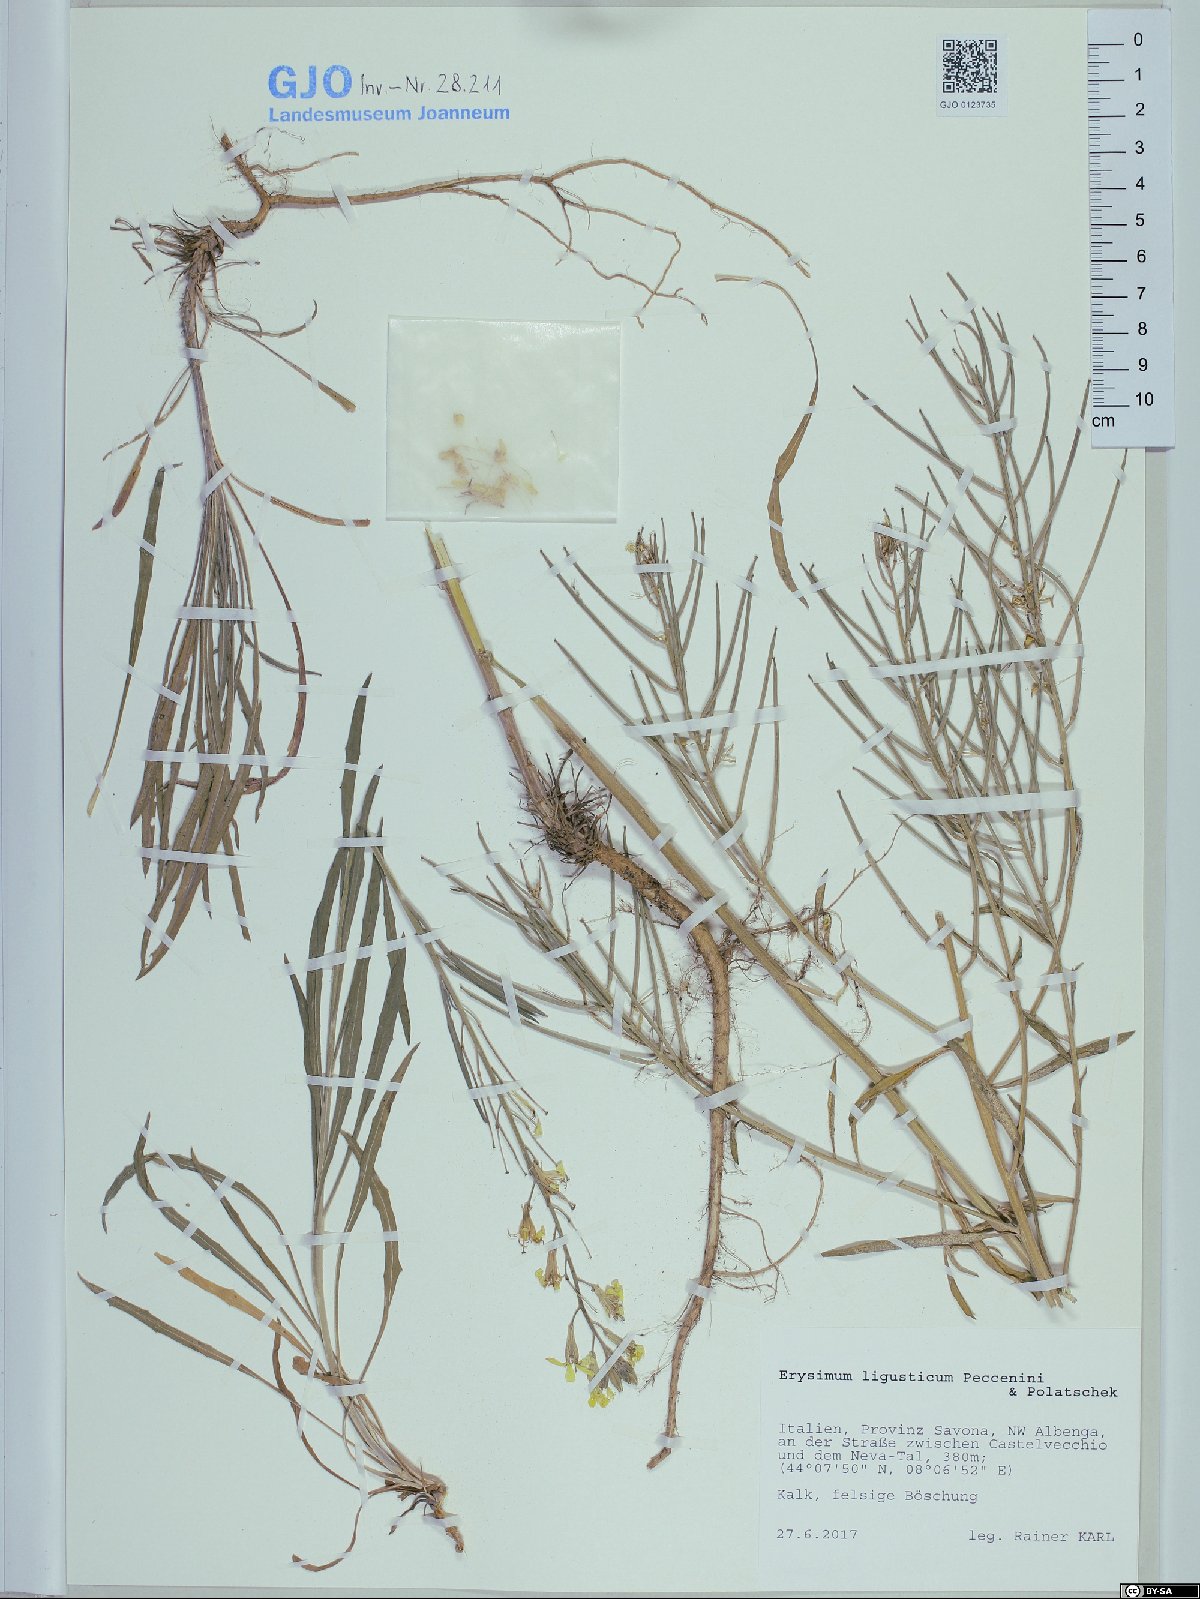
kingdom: Plantae
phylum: Tracheophyta
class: Magnoliopsida
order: Brassicales
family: Brassicaceae
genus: Erysimum
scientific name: Erysimum ligusticum
